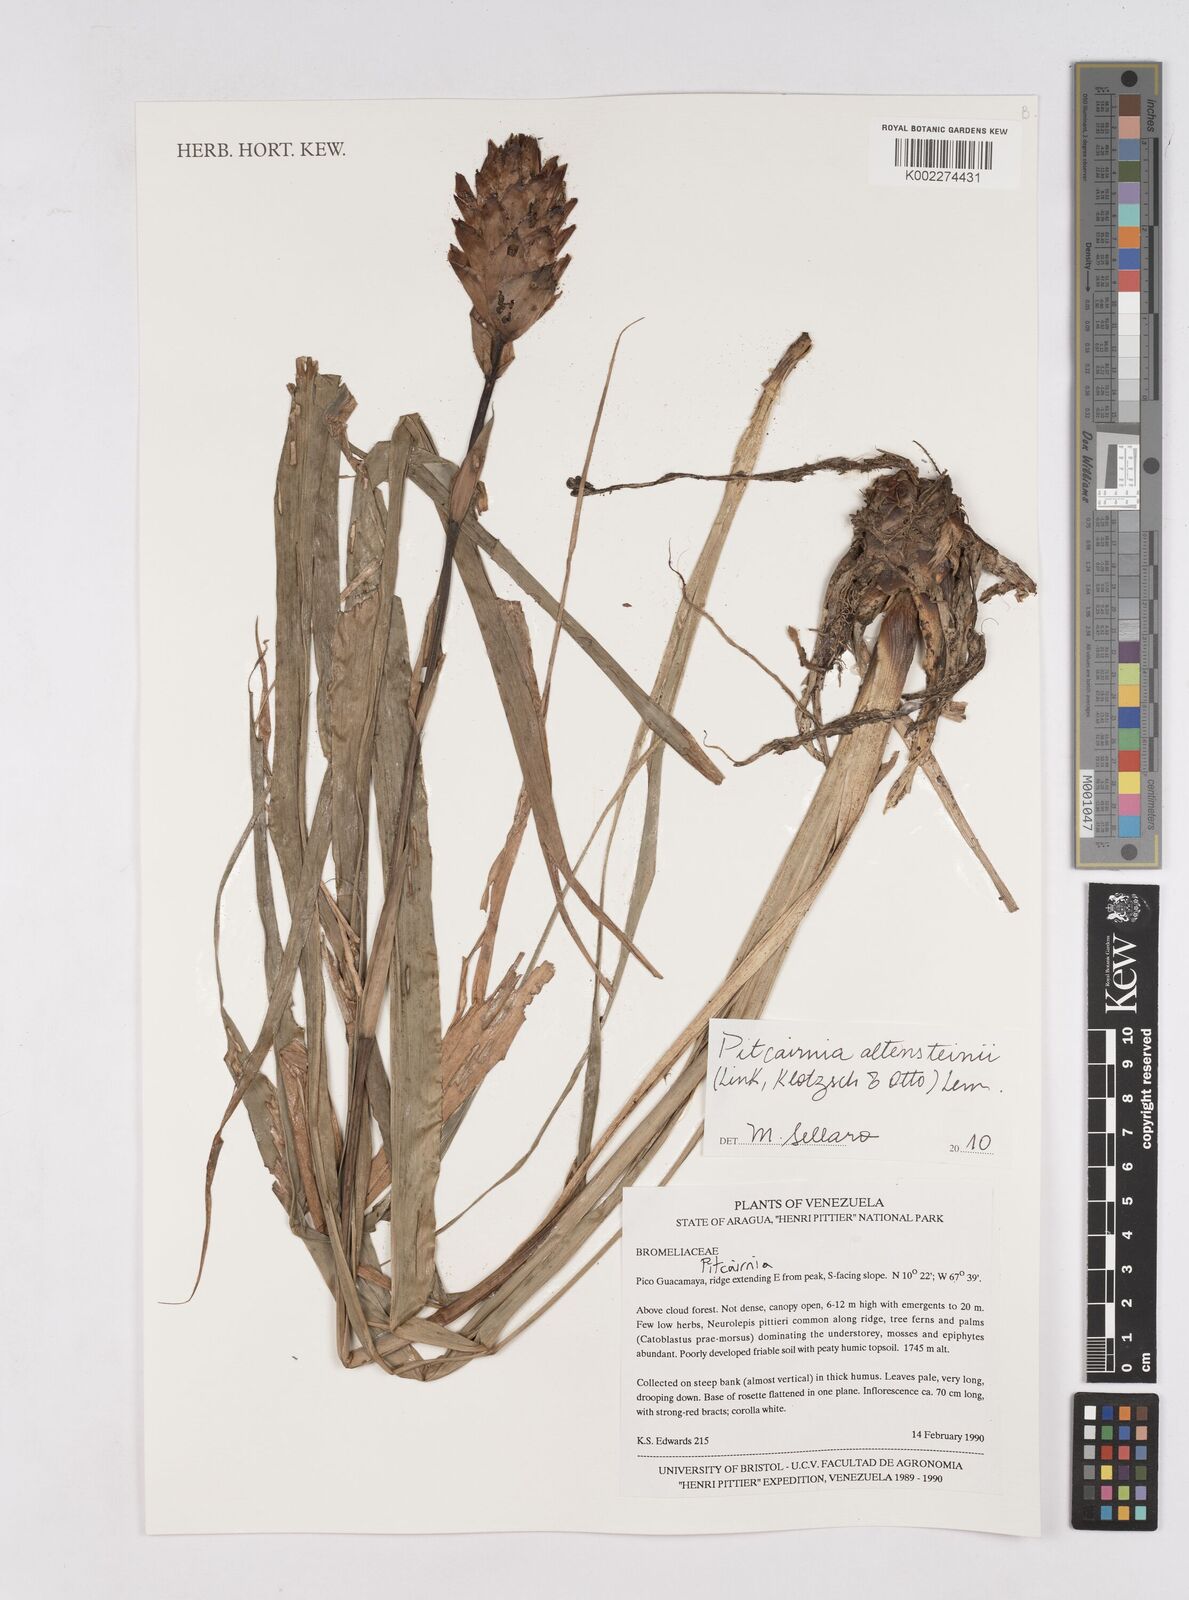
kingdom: Plantae
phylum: Tracheophyta
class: Liliopsida
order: Poales
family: Bromeliaceae
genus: Pitcairnia
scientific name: Pitcairnia altensteinii
